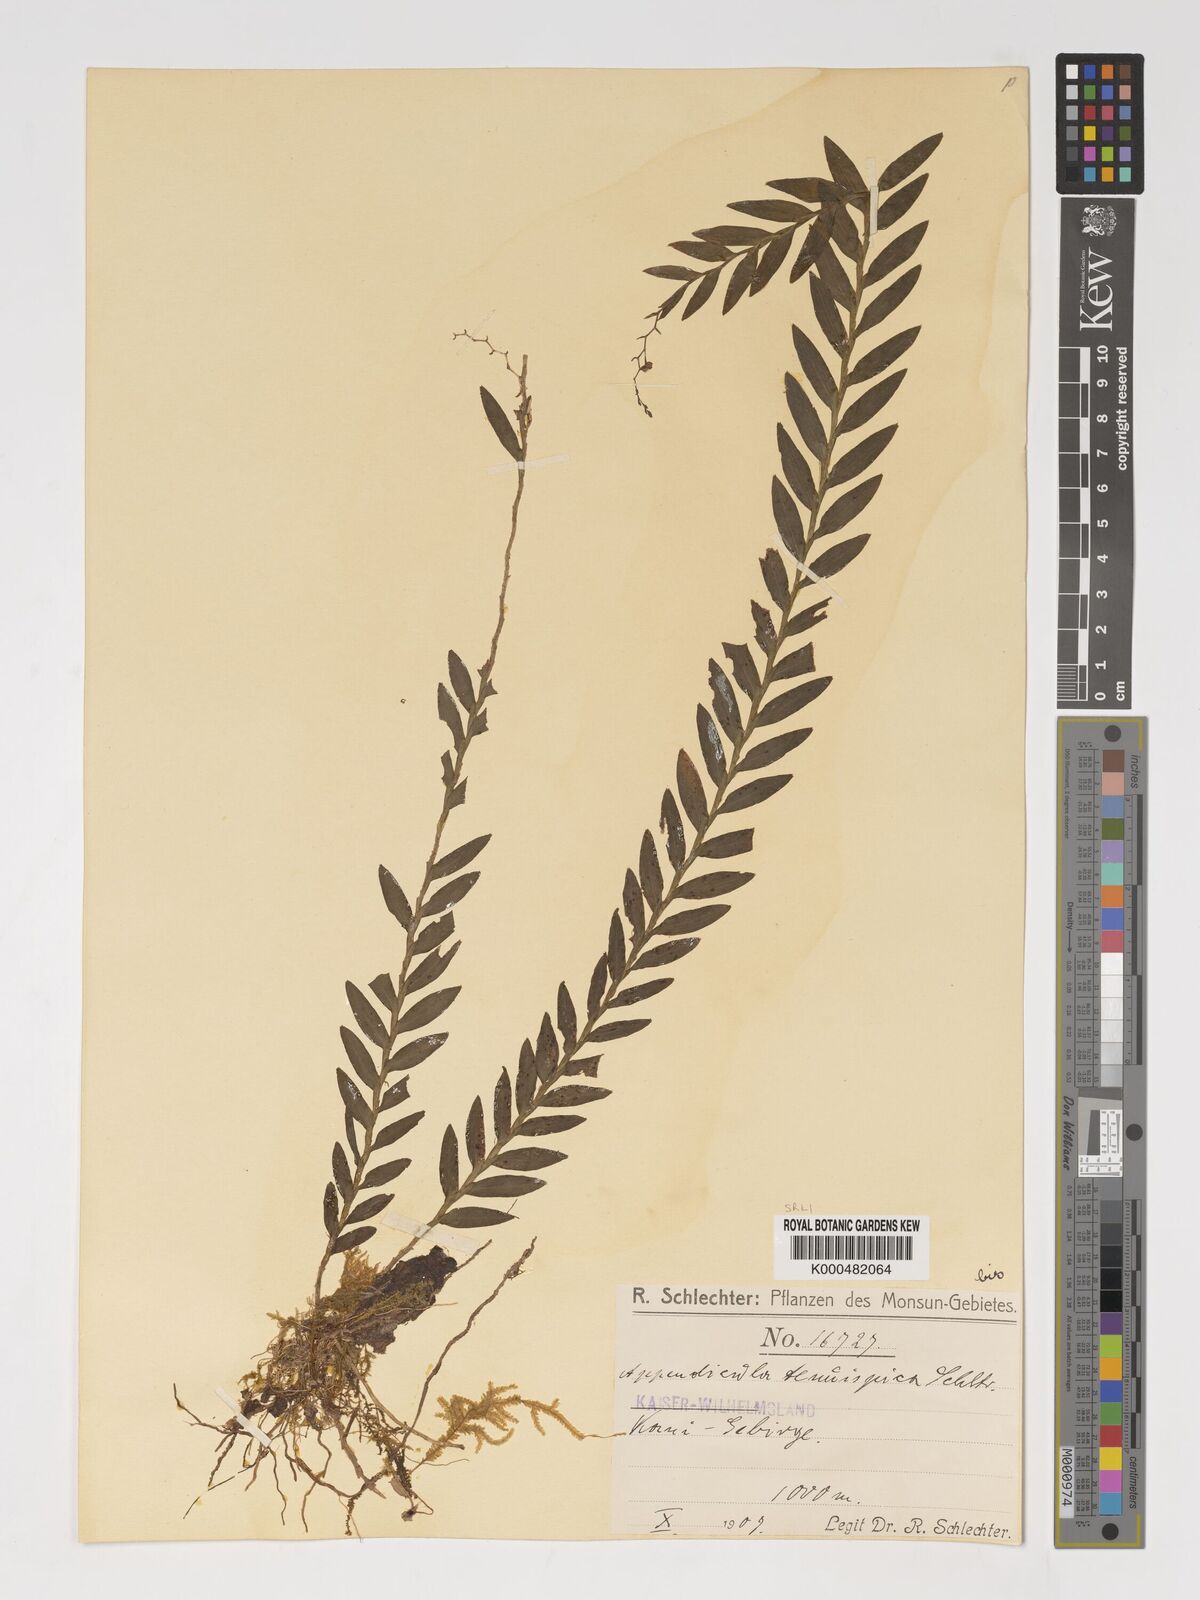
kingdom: Plantae
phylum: Tracheophyta
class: Liliopsida
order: Asparagales
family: Orchidaceae
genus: Appendicula
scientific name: Appendicula tenuispica
